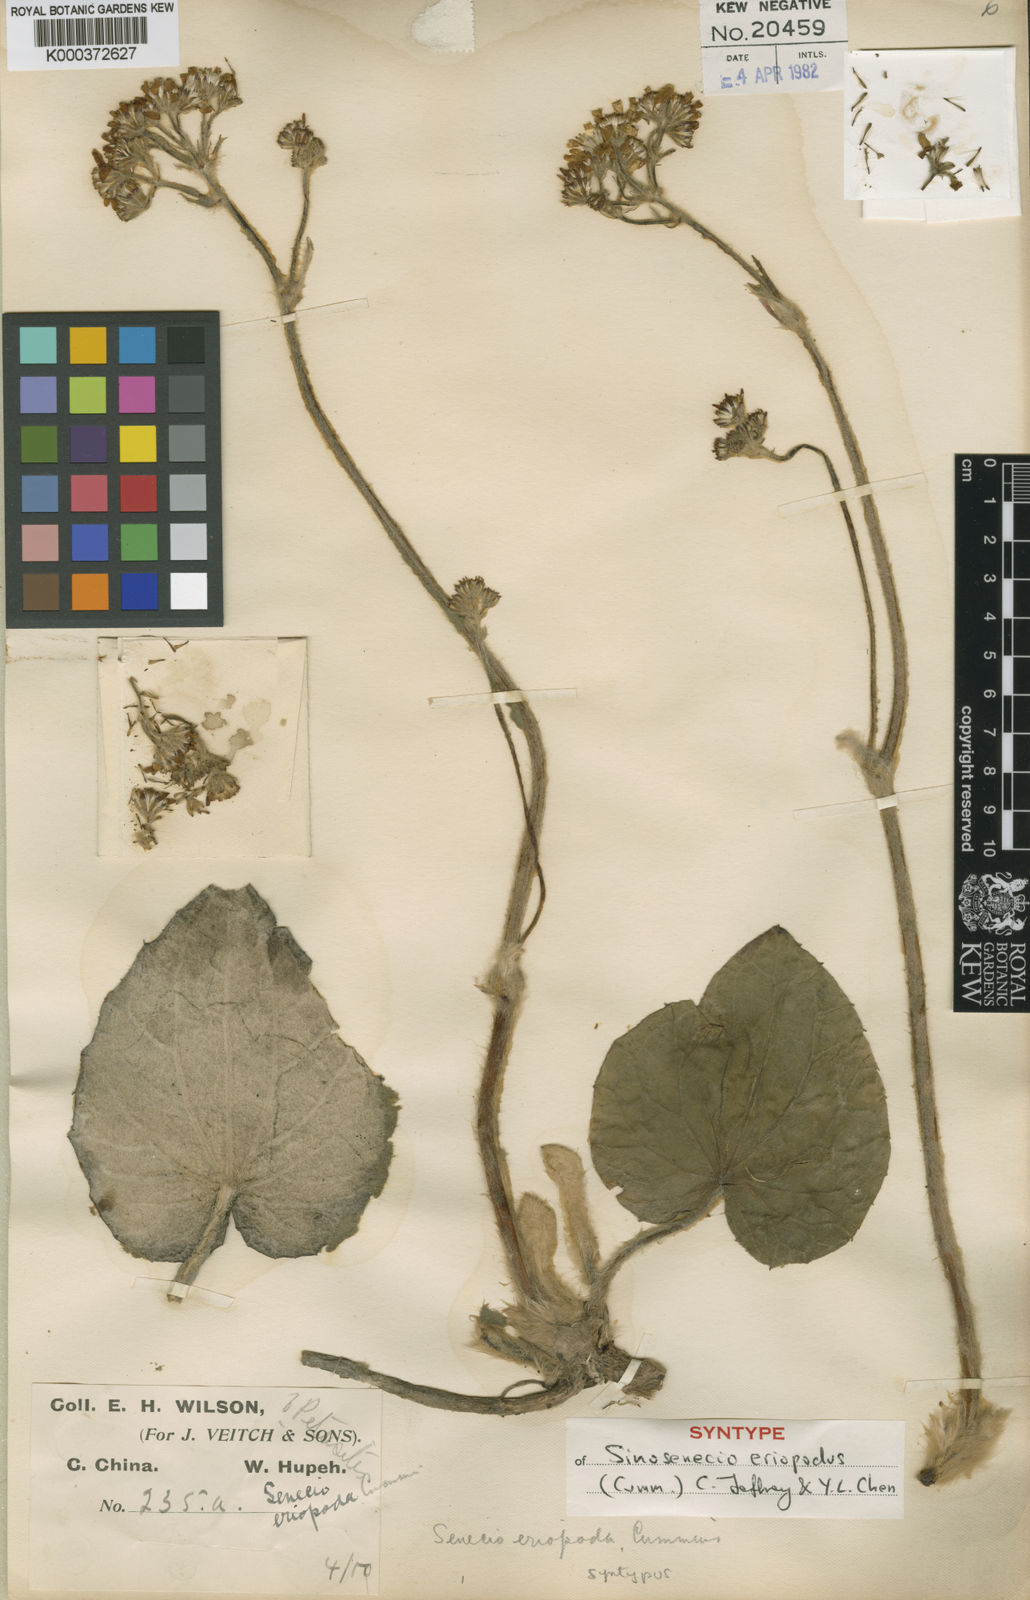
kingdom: Plantae
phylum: Tracheophyta
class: Magnoliopsida
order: Asterales
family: Asteraceae
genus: Sinosenecio
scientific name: Sinosenecio eriopodus
